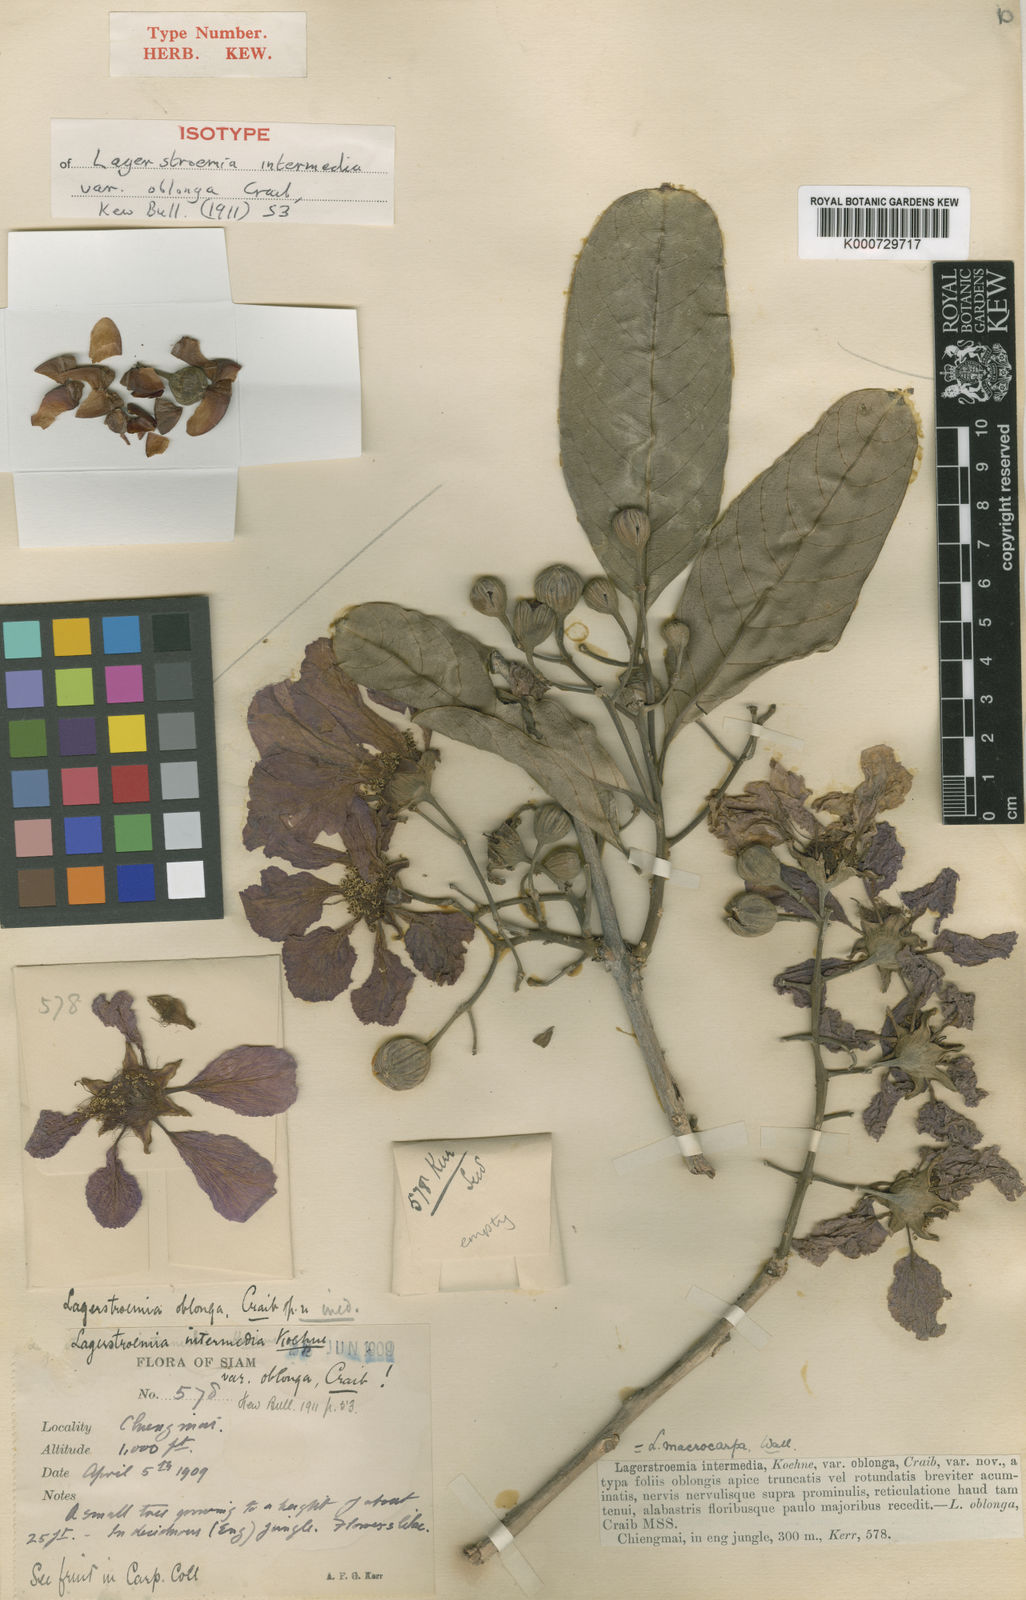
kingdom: Plantae
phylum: Tracheophyta
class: Magnoliopsida
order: Myrtales
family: Lythraceae
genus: Lagerstroemia
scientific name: Lagerstroemia macrocarpa
